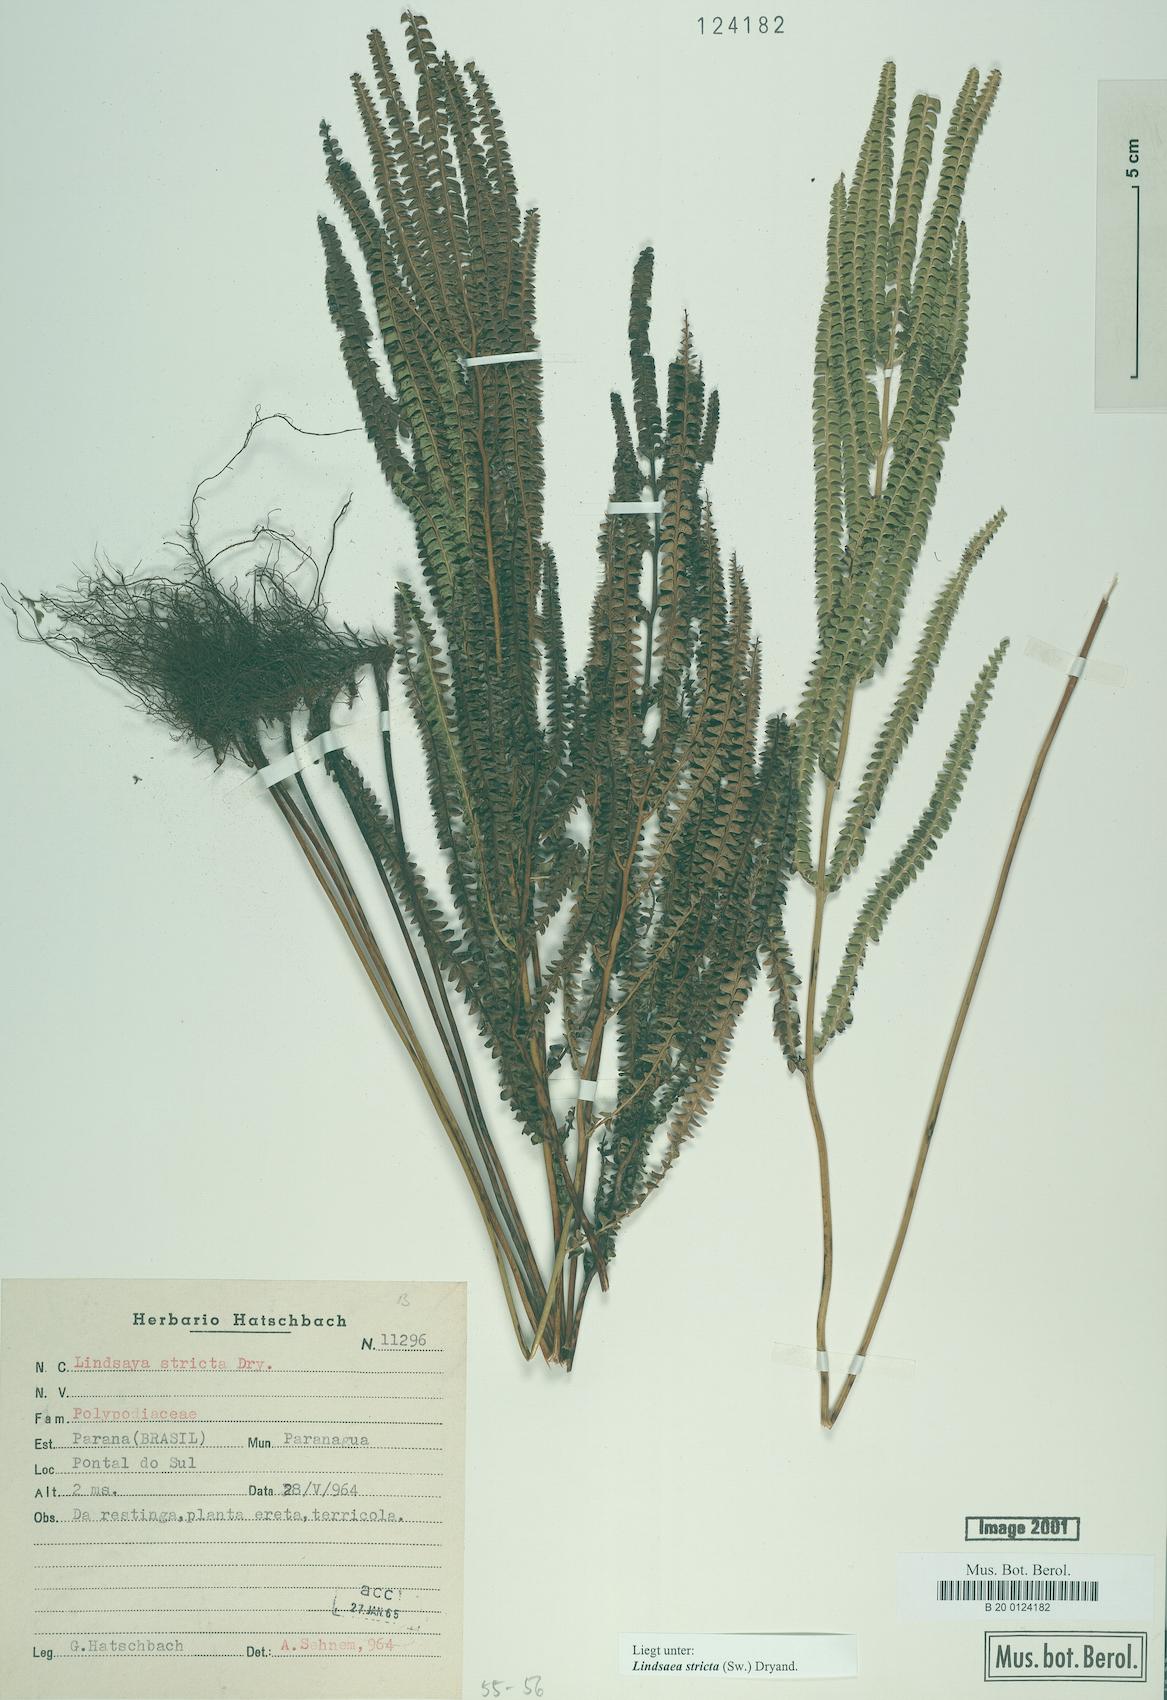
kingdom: Plantae
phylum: Tracheophyta
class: Polypodiopsida
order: Polypodiales
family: Lindsaeaceae
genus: Lindsaea
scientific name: Lindsaea stricta
